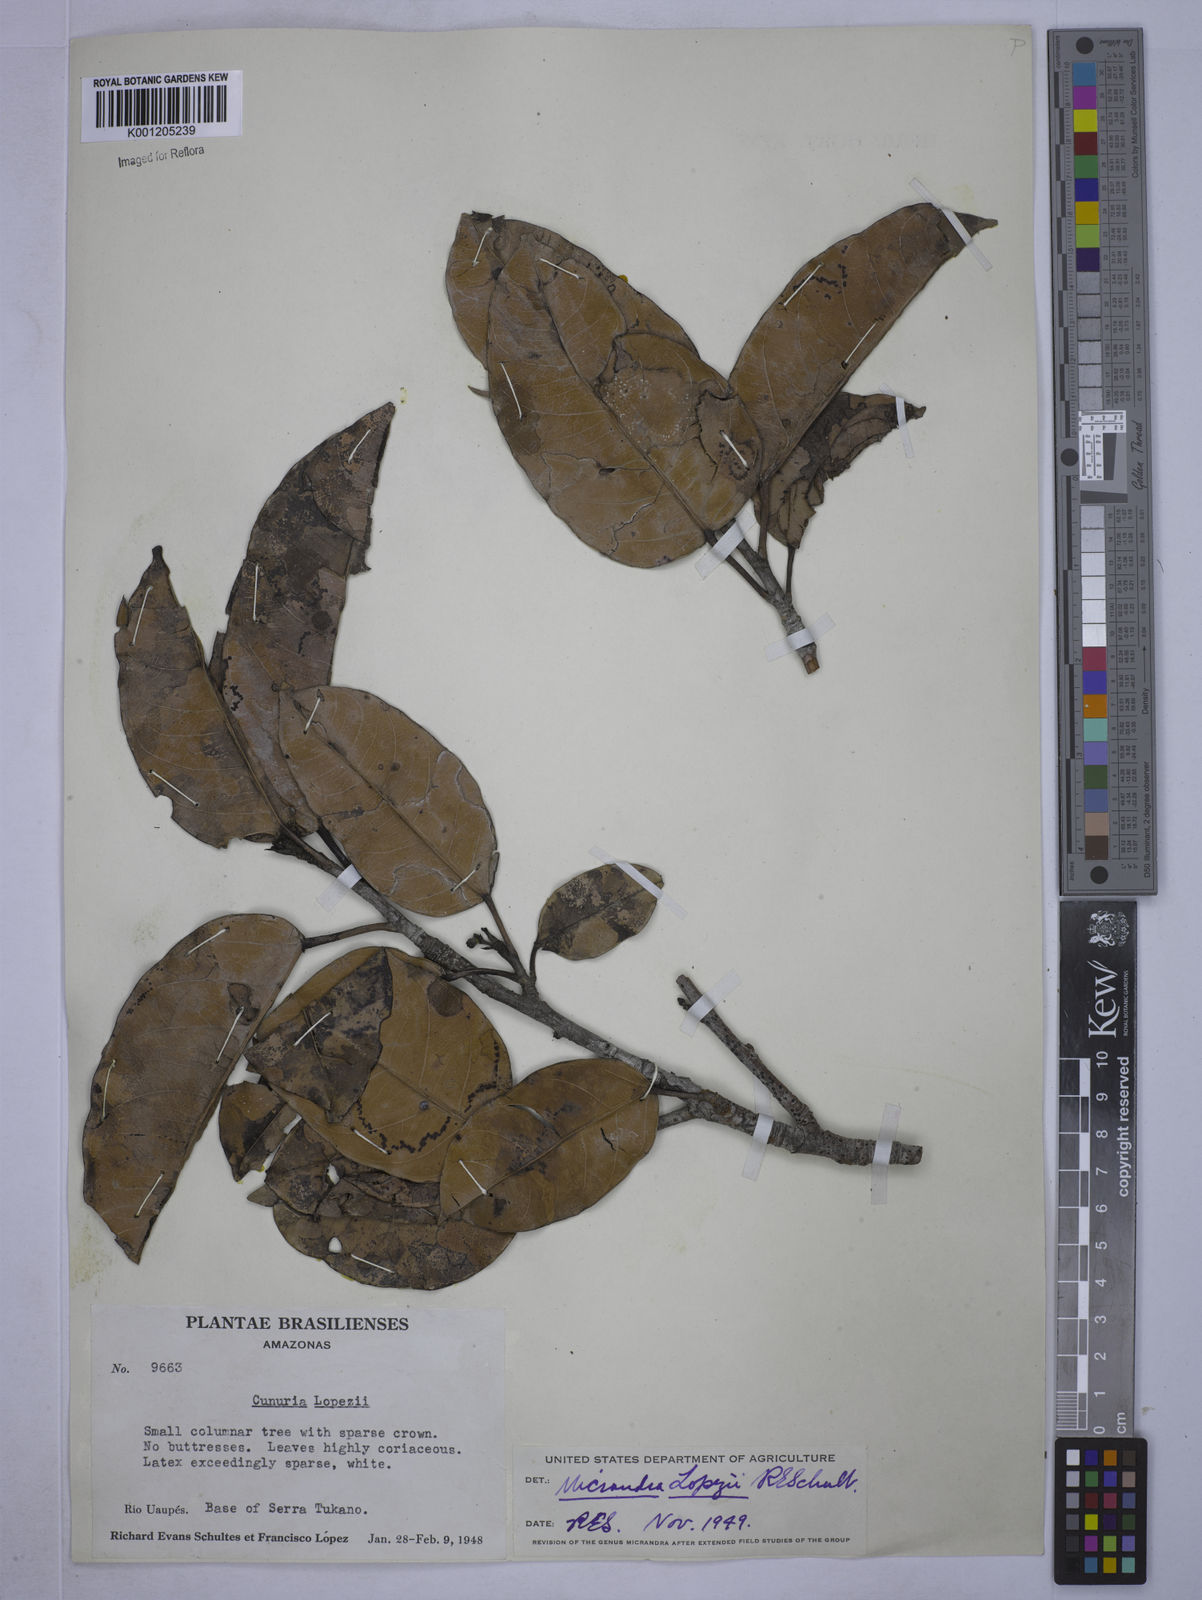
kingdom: Plantae
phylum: Tracheophyta
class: Magnoliopsida
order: Malpighiales
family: Euphorbiaceae
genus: Micrandra
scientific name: Micrandra lopezii
